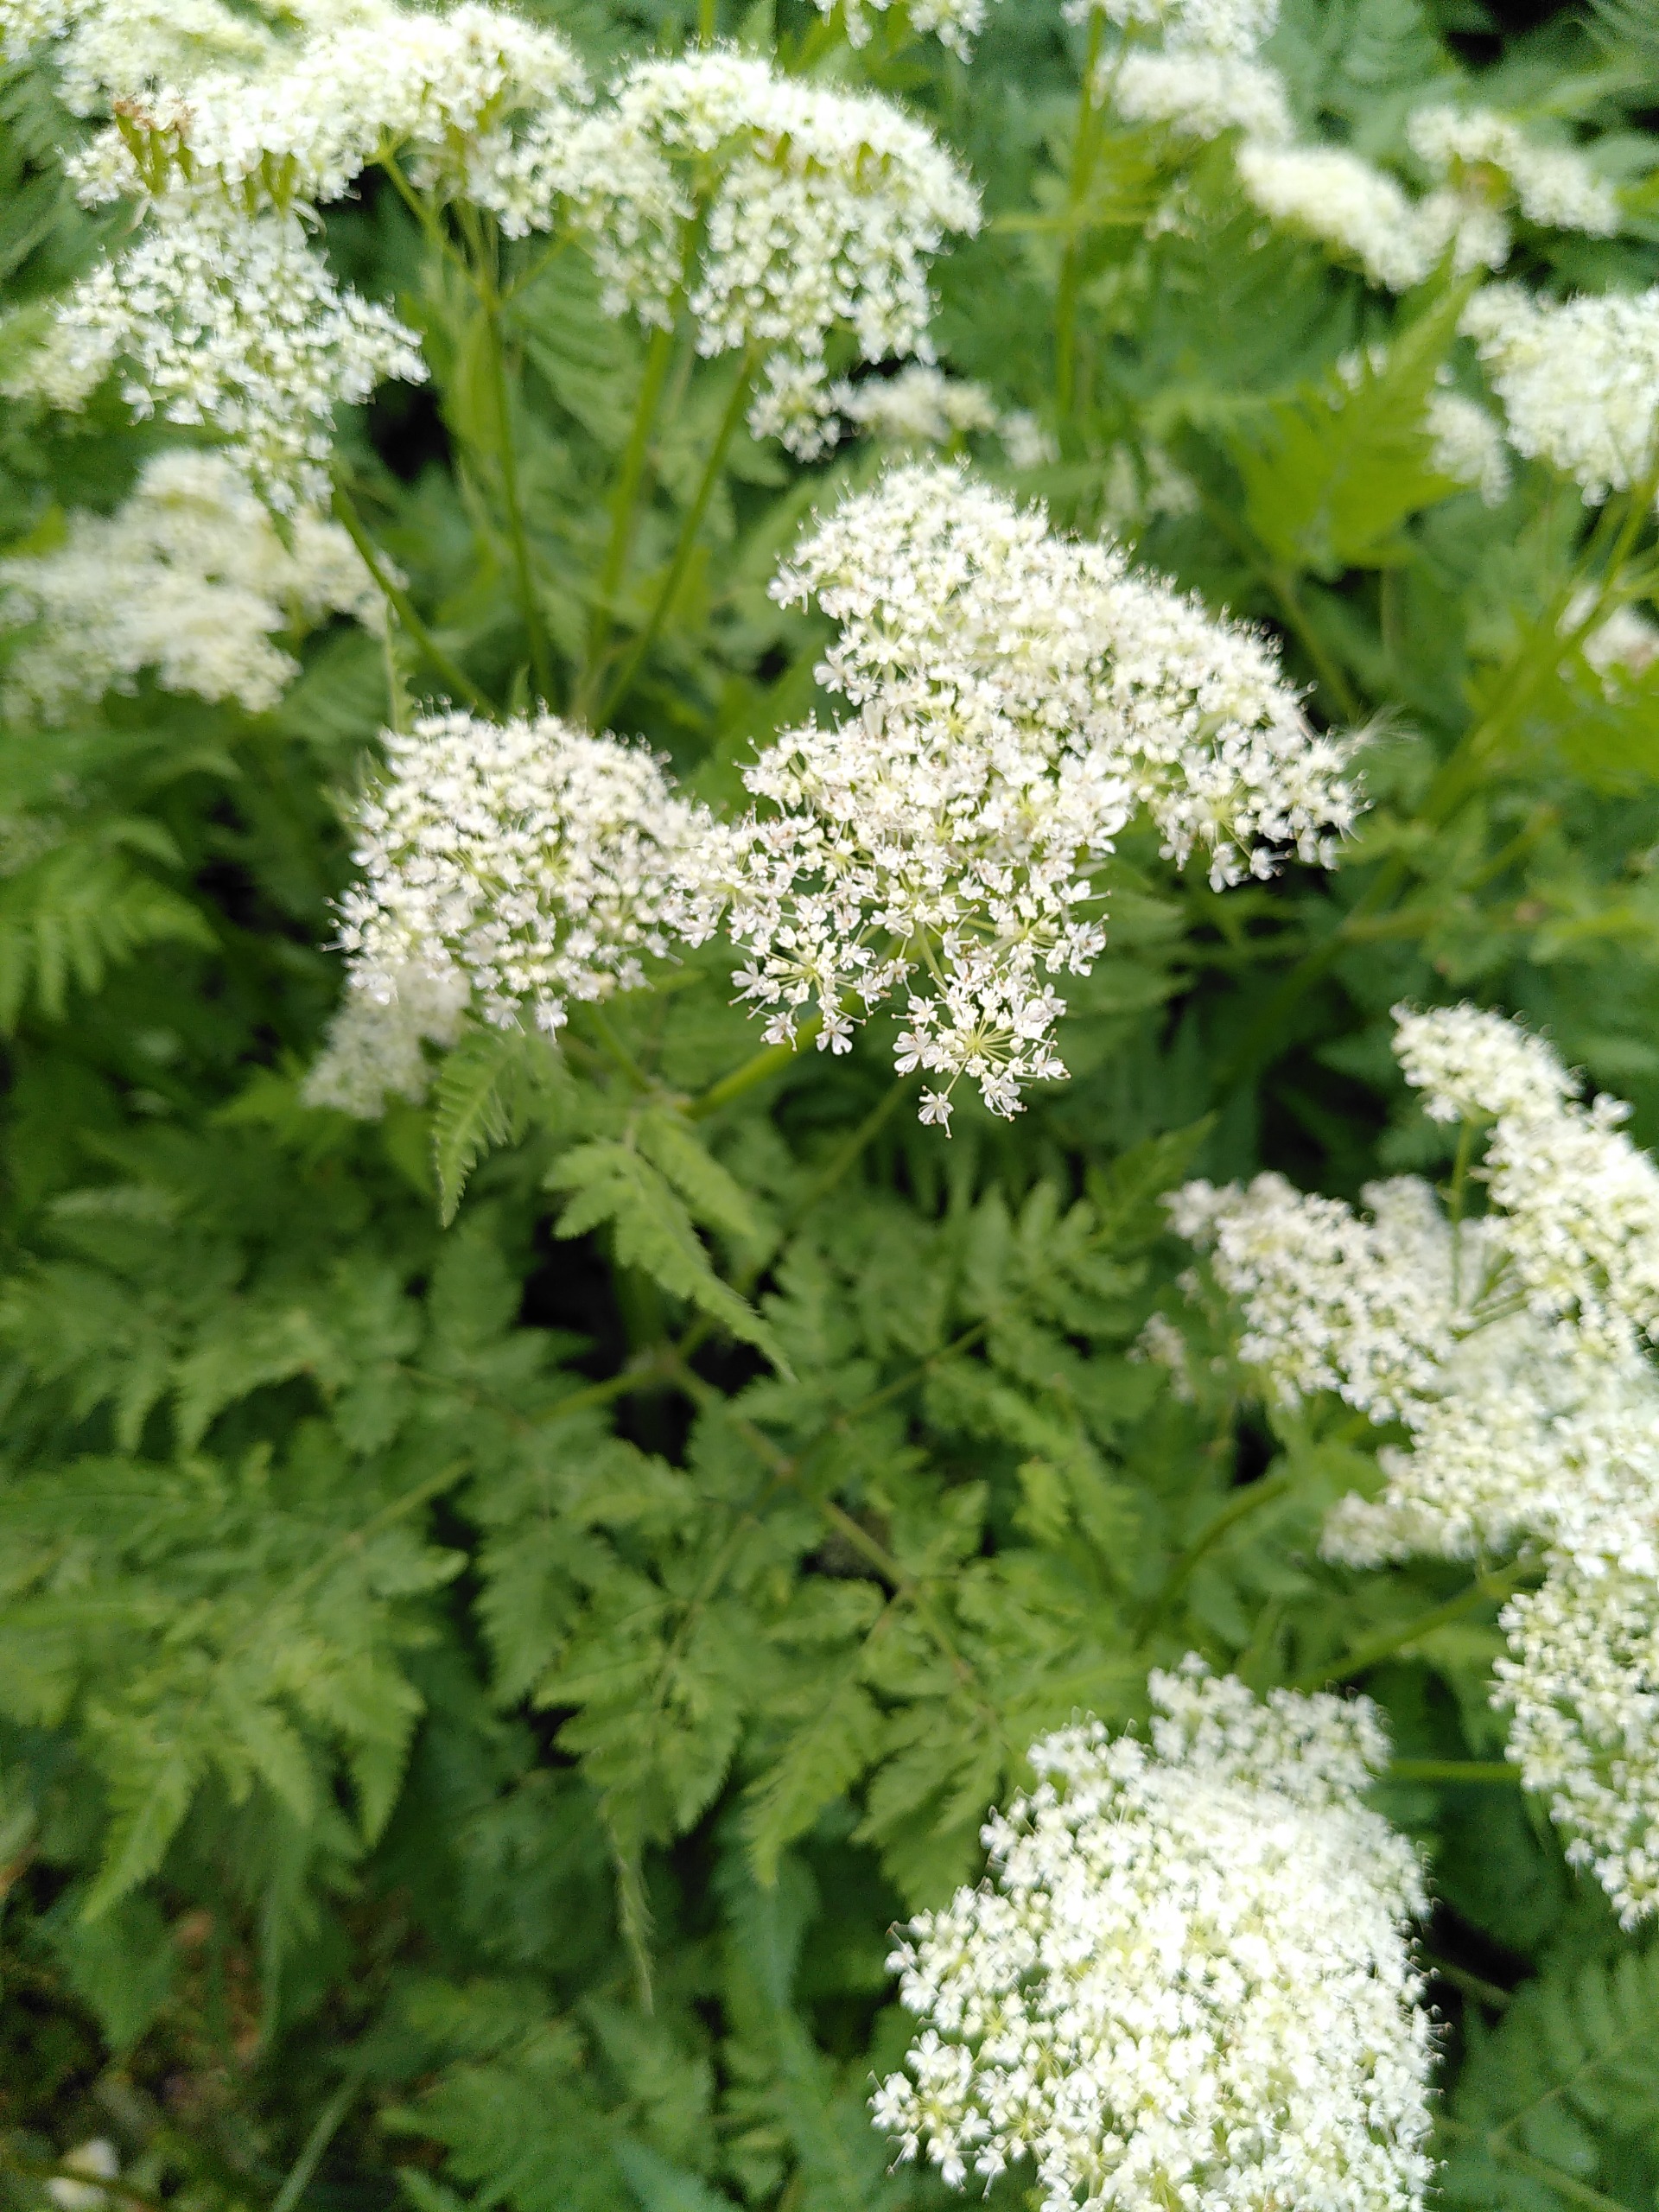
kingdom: Plantae
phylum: Tracheophyta
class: Magnoliopsida
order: Apiales
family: Apiaceae
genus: Myrrhis
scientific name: Myrrhis odorata
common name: Sødskærm
